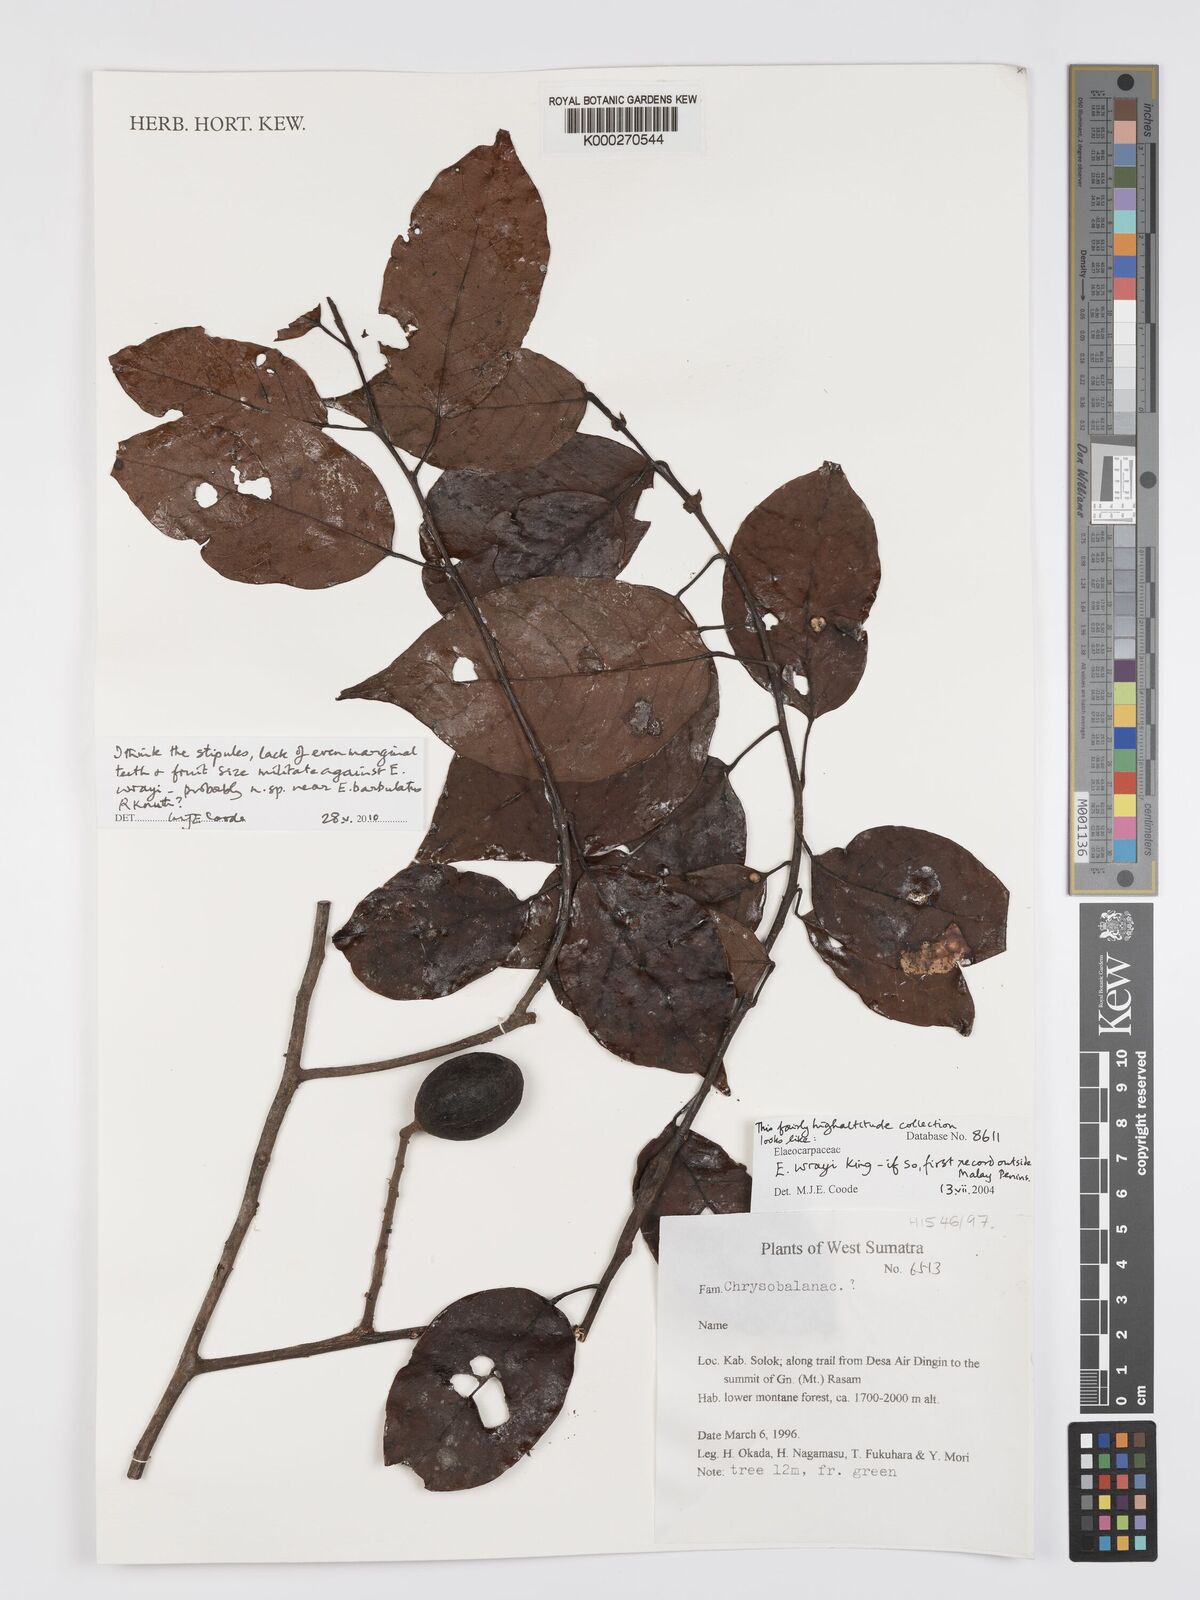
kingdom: Plantae
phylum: Tracheophyta
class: Magnoliopsida
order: Oxalidales
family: Elaeocarpaceae
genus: Elaeocarpus
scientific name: Elaeocarpus nitidus
